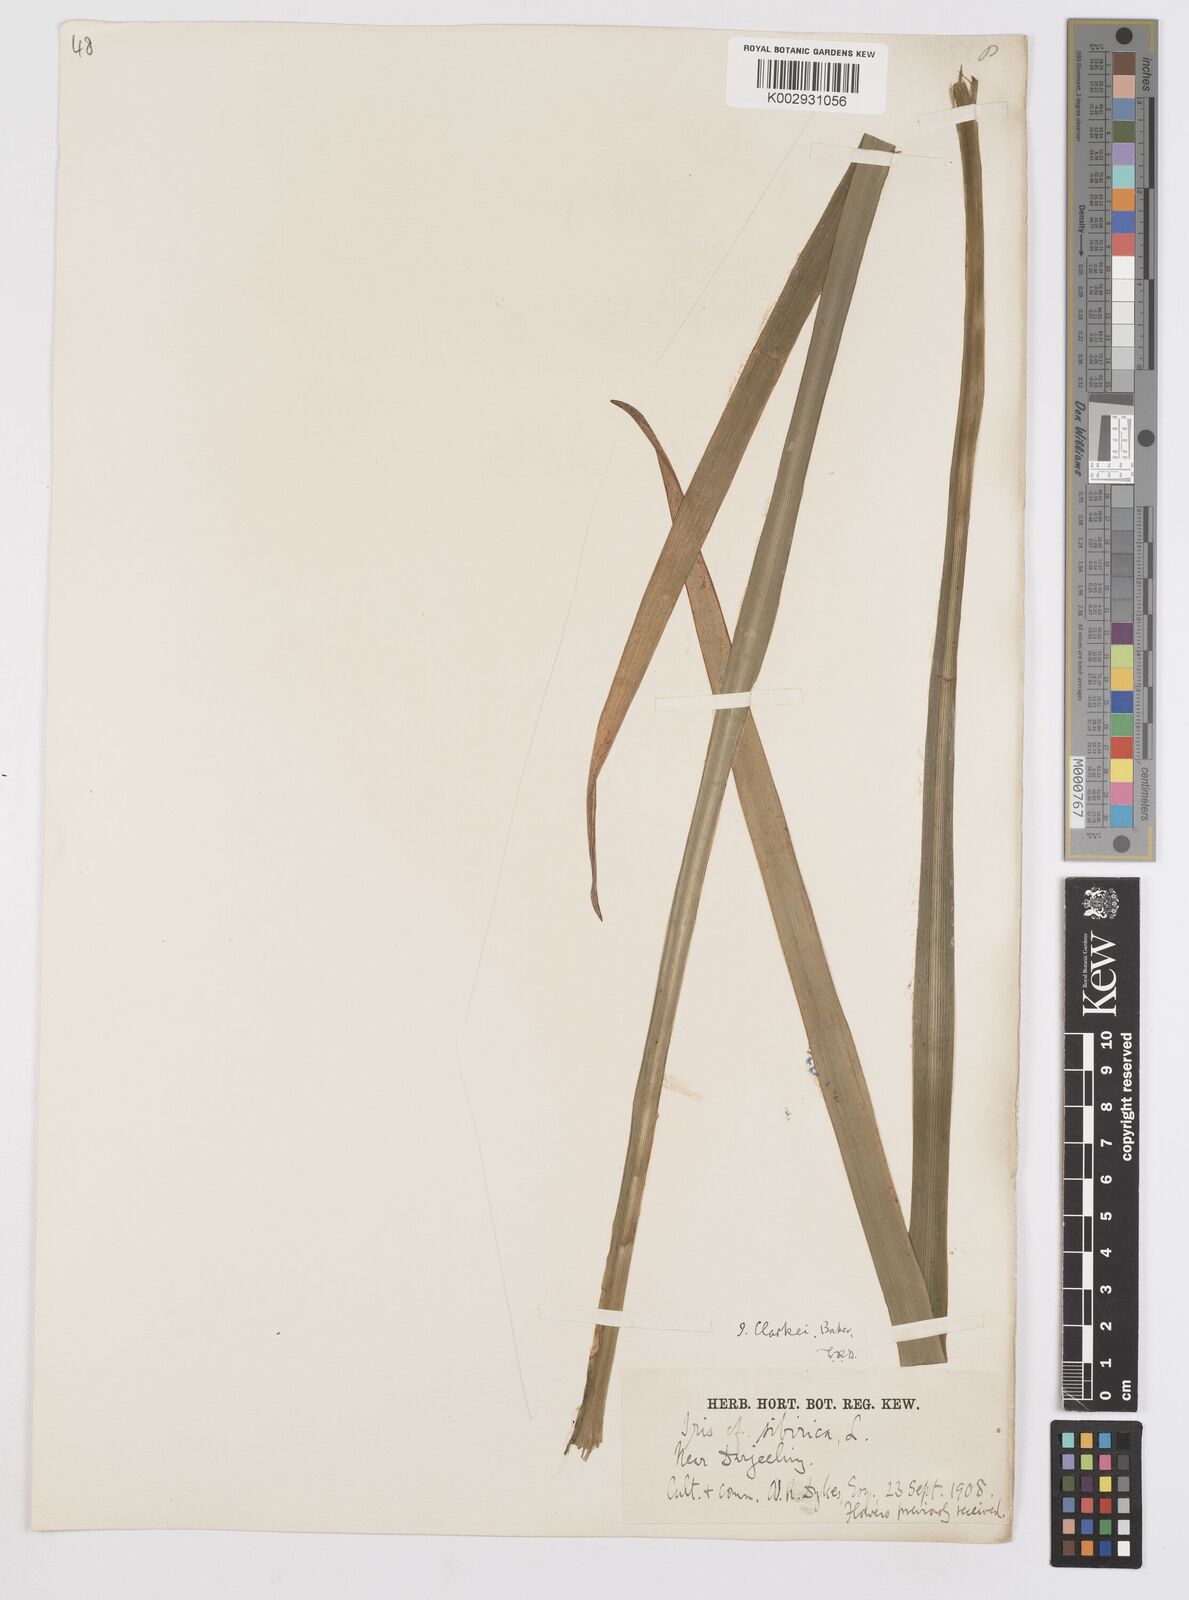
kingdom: Plantae
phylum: Tracheophyta
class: Liliopsida
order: Asparagales
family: Iridaceae
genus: Iris
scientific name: Iris clarkei
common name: Tibet iris
